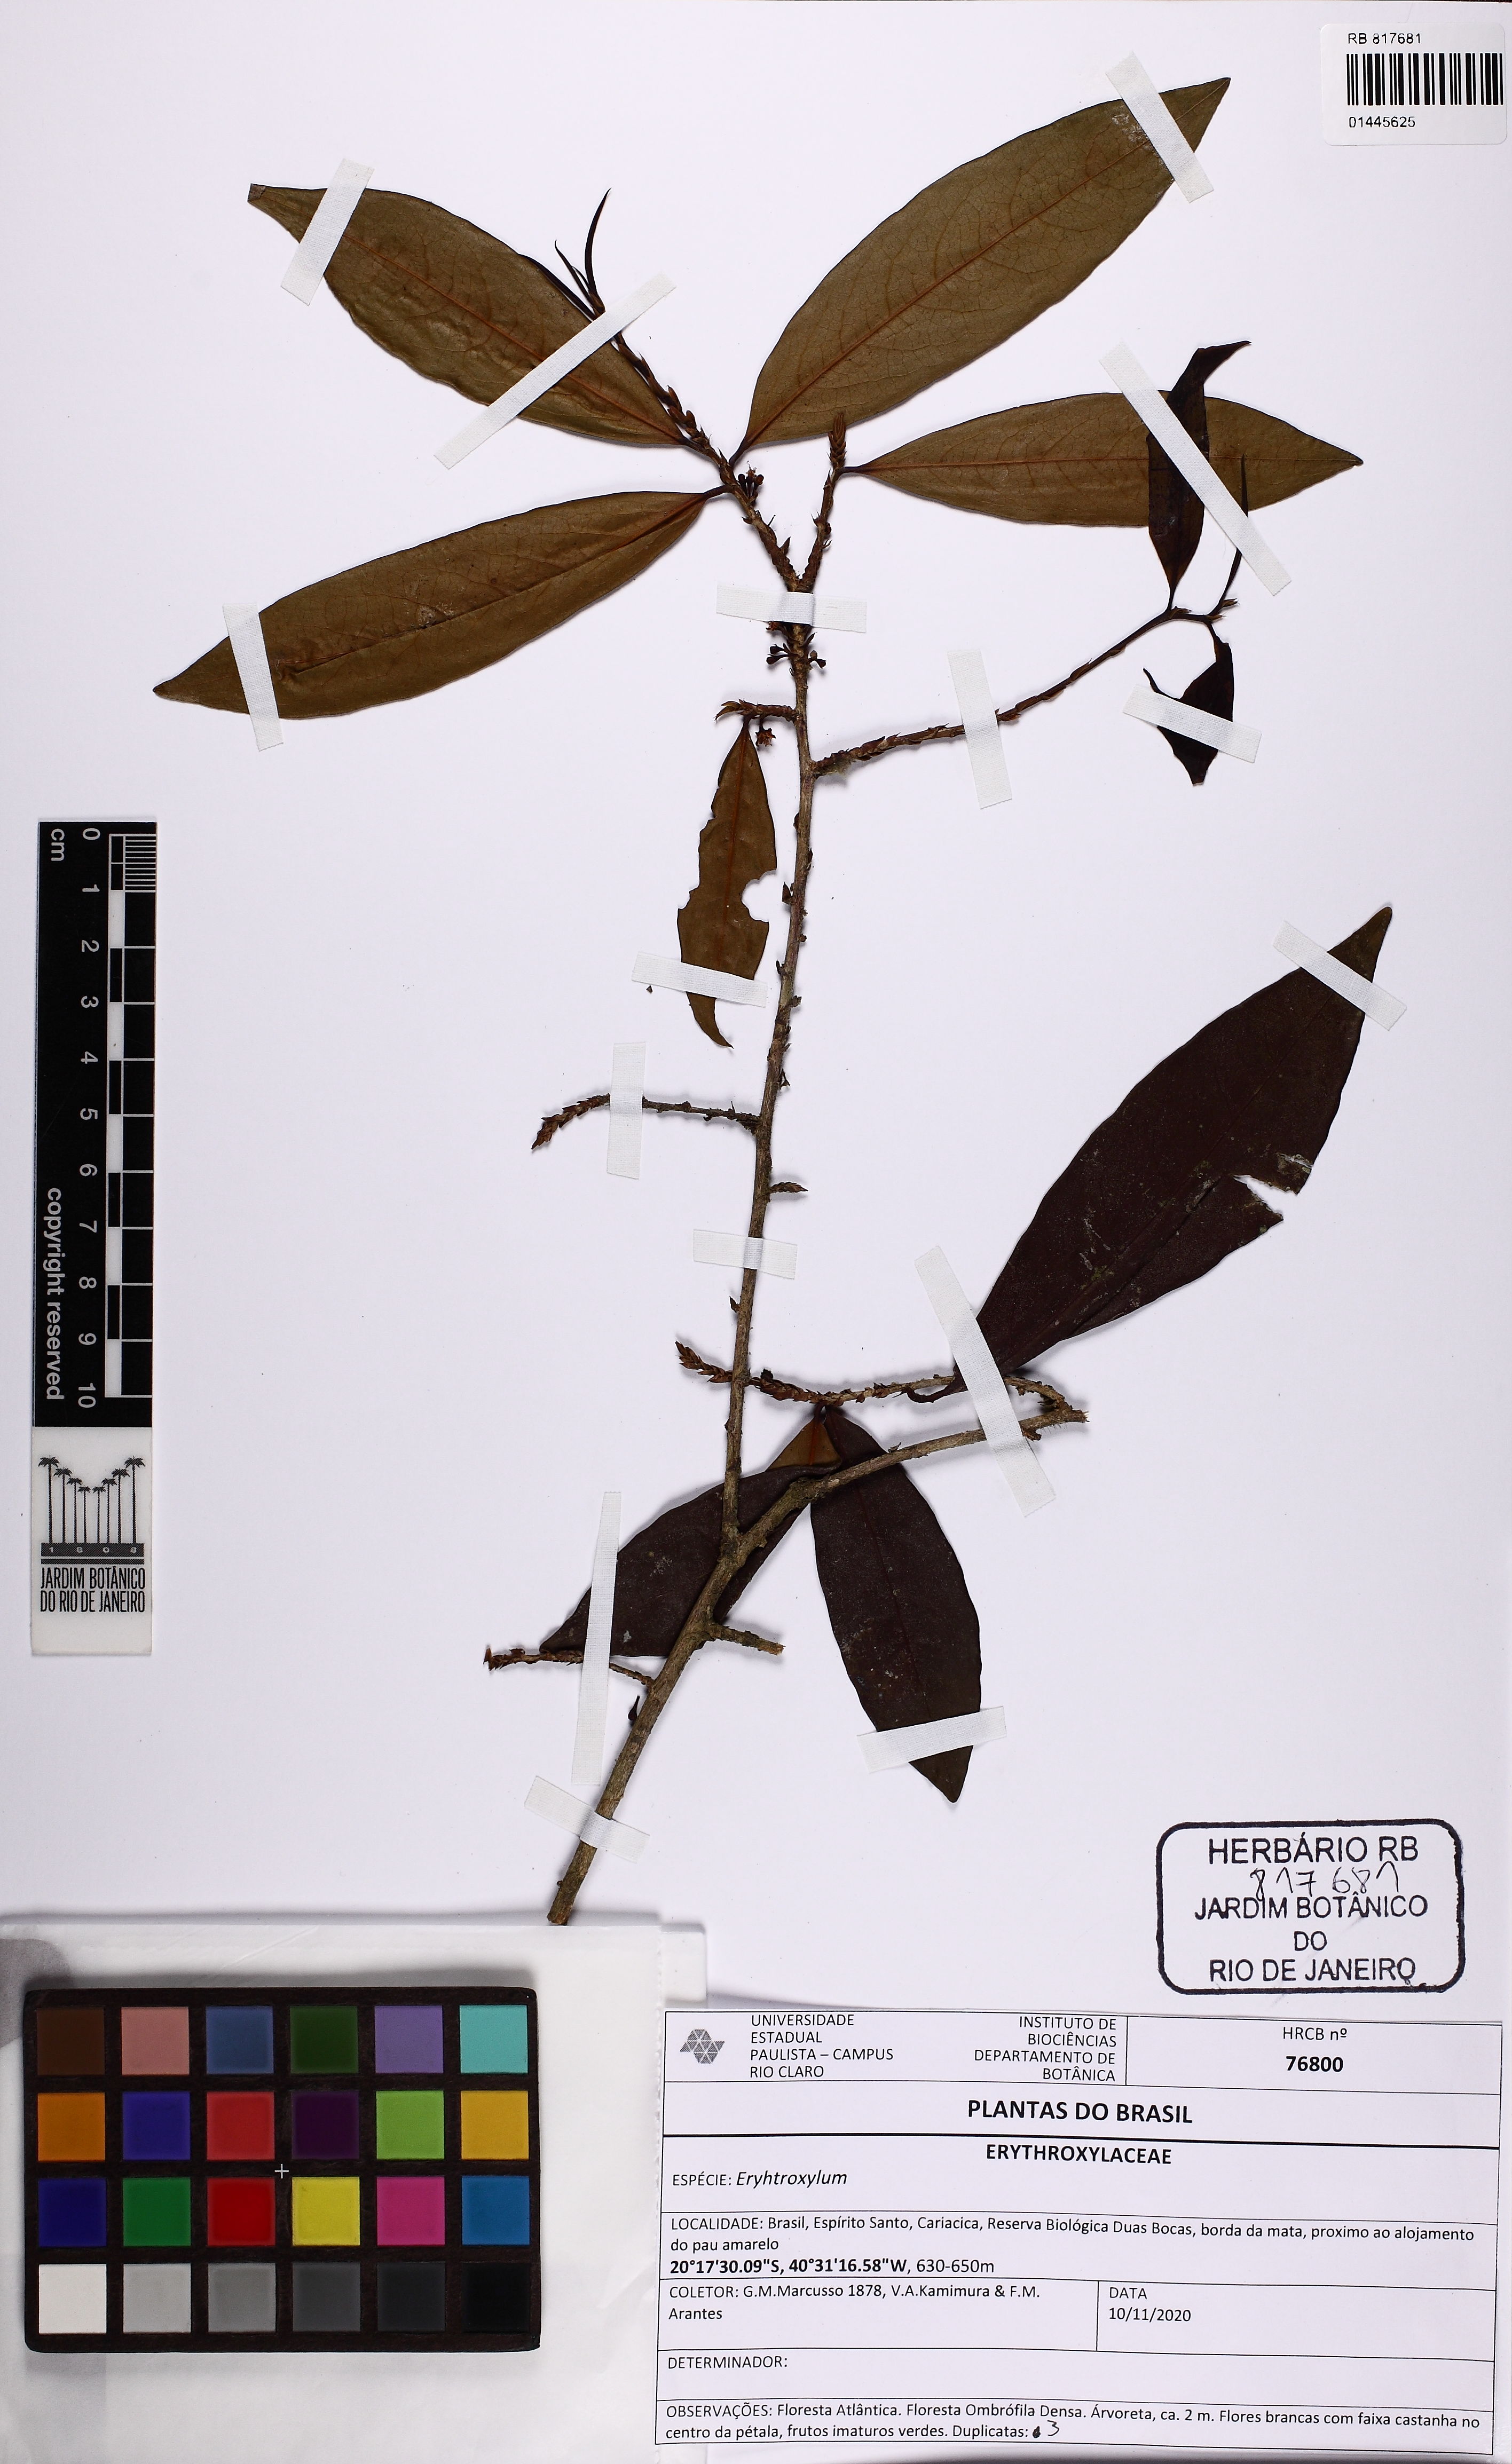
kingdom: Plantae
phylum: Tracheophyta
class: Magnoliopsida
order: Malpighiales
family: Erythroxylaceae
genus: Erythroxylum
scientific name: Erythroxylum
